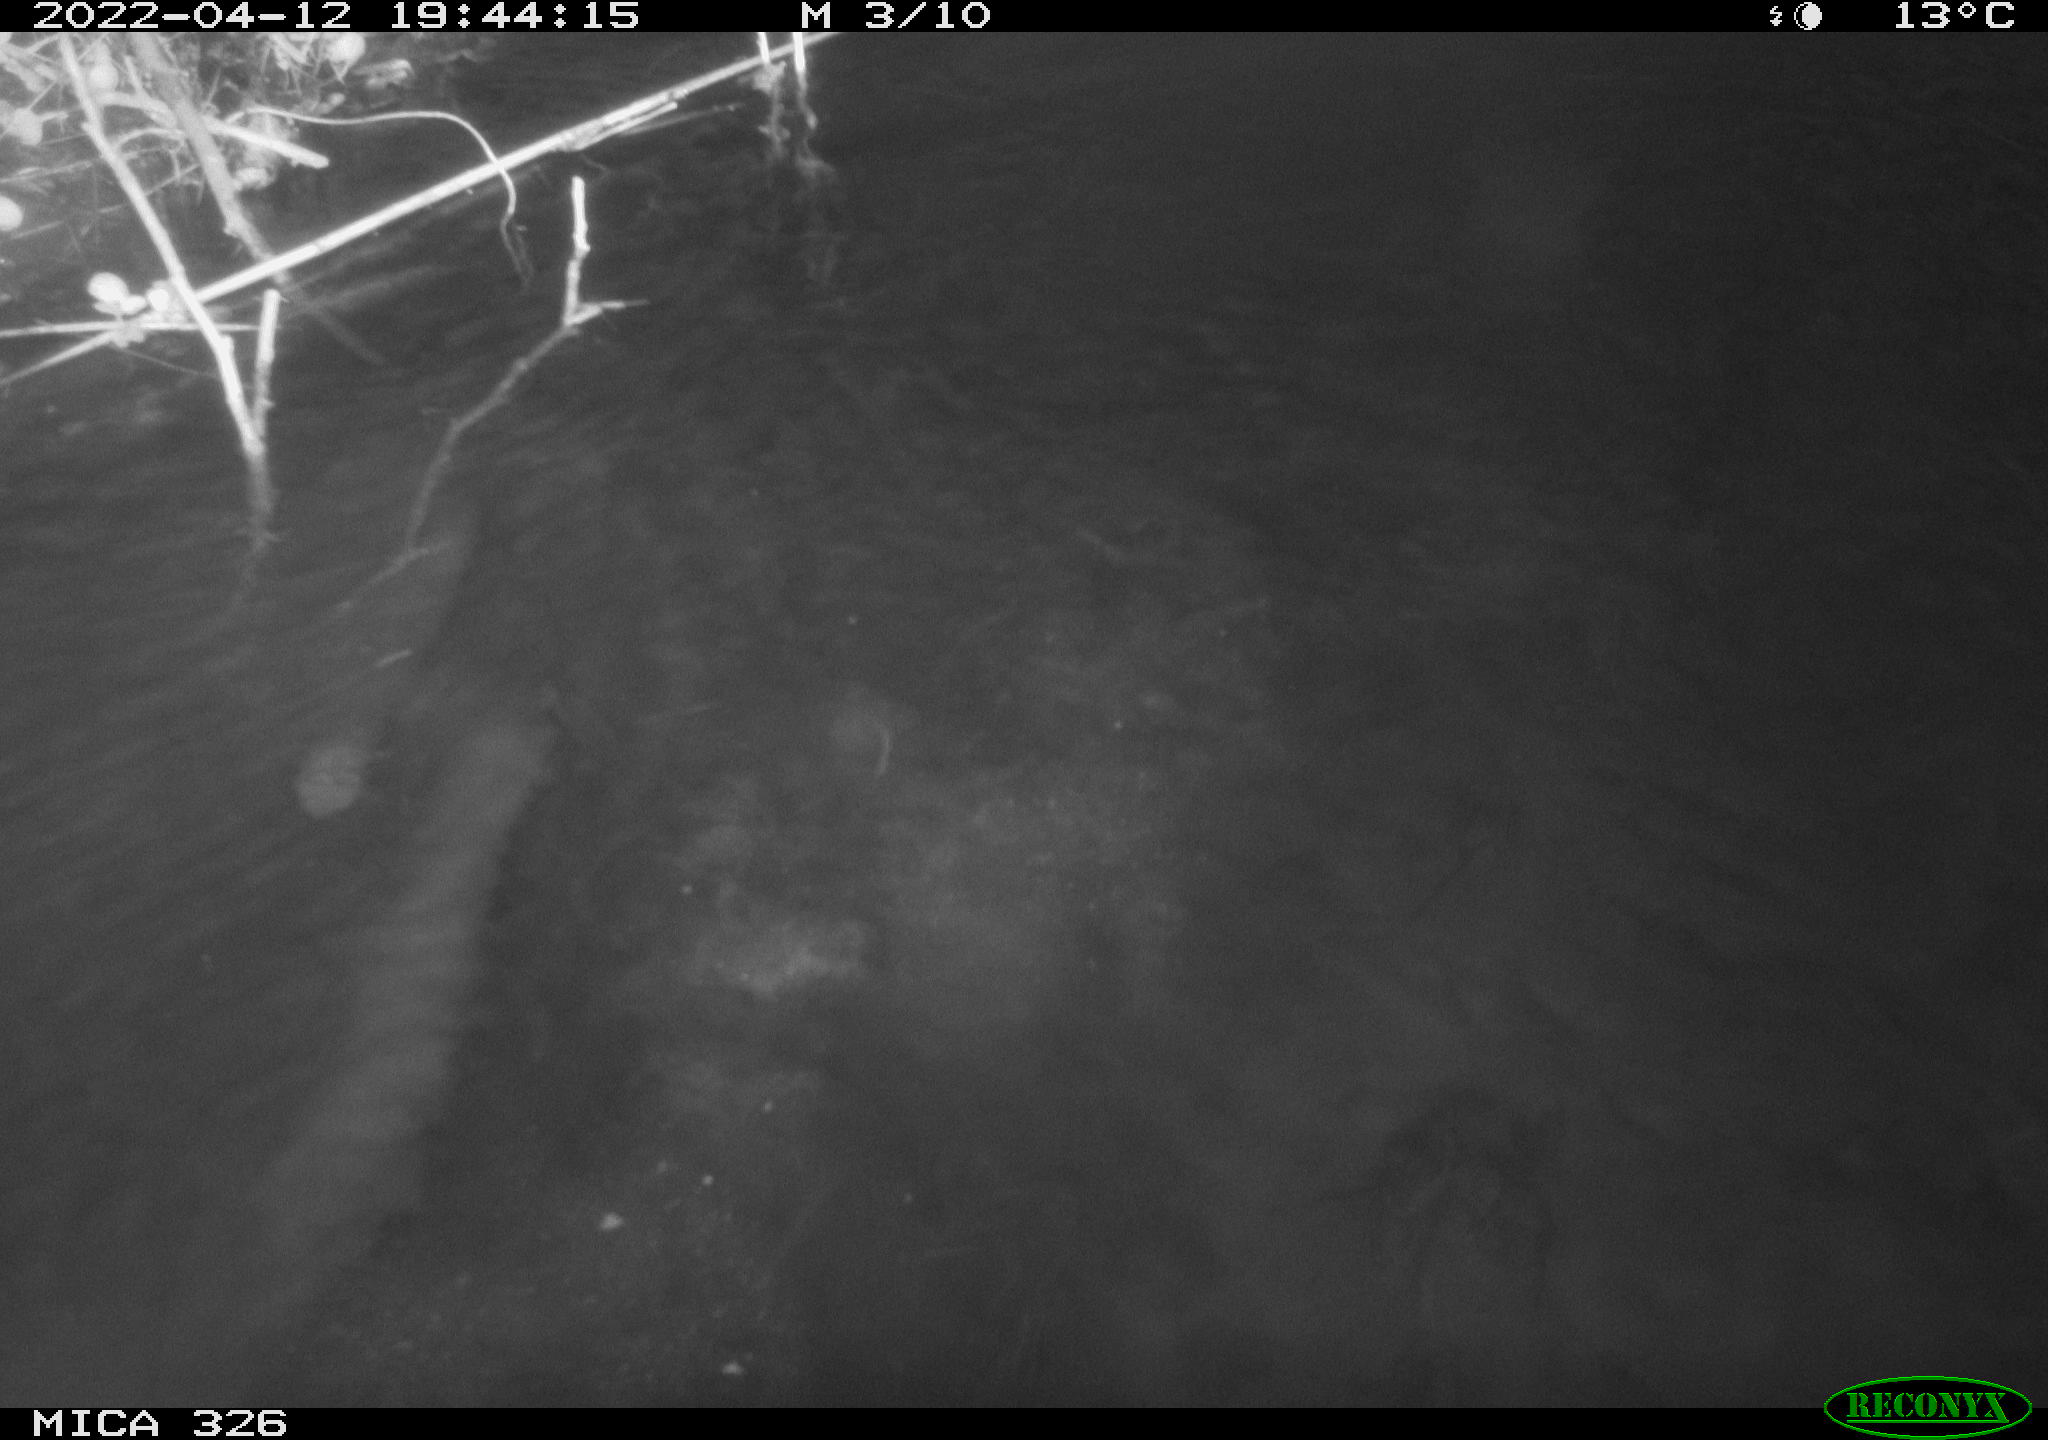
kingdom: Animalia
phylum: Chordata
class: Mammalia
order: Rodentia
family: Cricetidae
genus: Ondatra
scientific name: Ondatra zibethicus
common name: Muskrat
